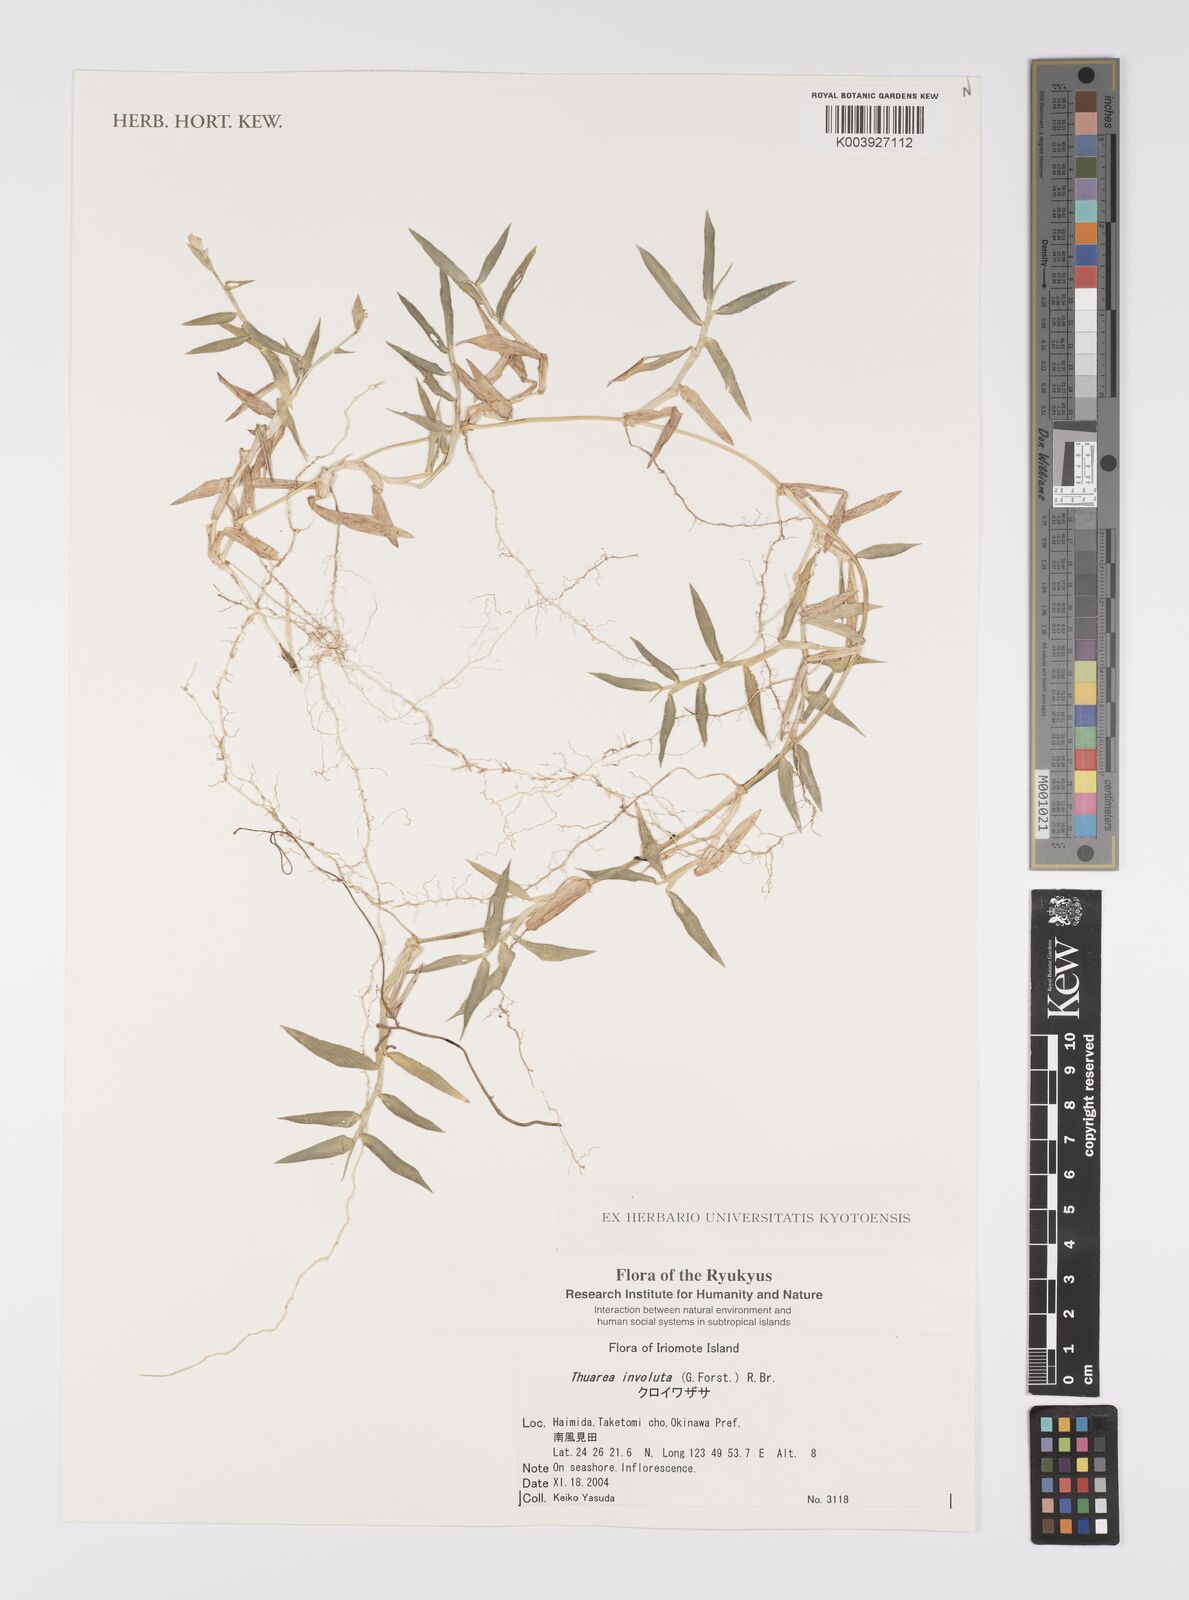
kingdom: Plantae
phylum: Tracheophyta
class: Liliopsida
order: Poales
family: Poaceae
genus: Thuarea
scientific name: Thuarea involuta
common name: Tropical beach grass
